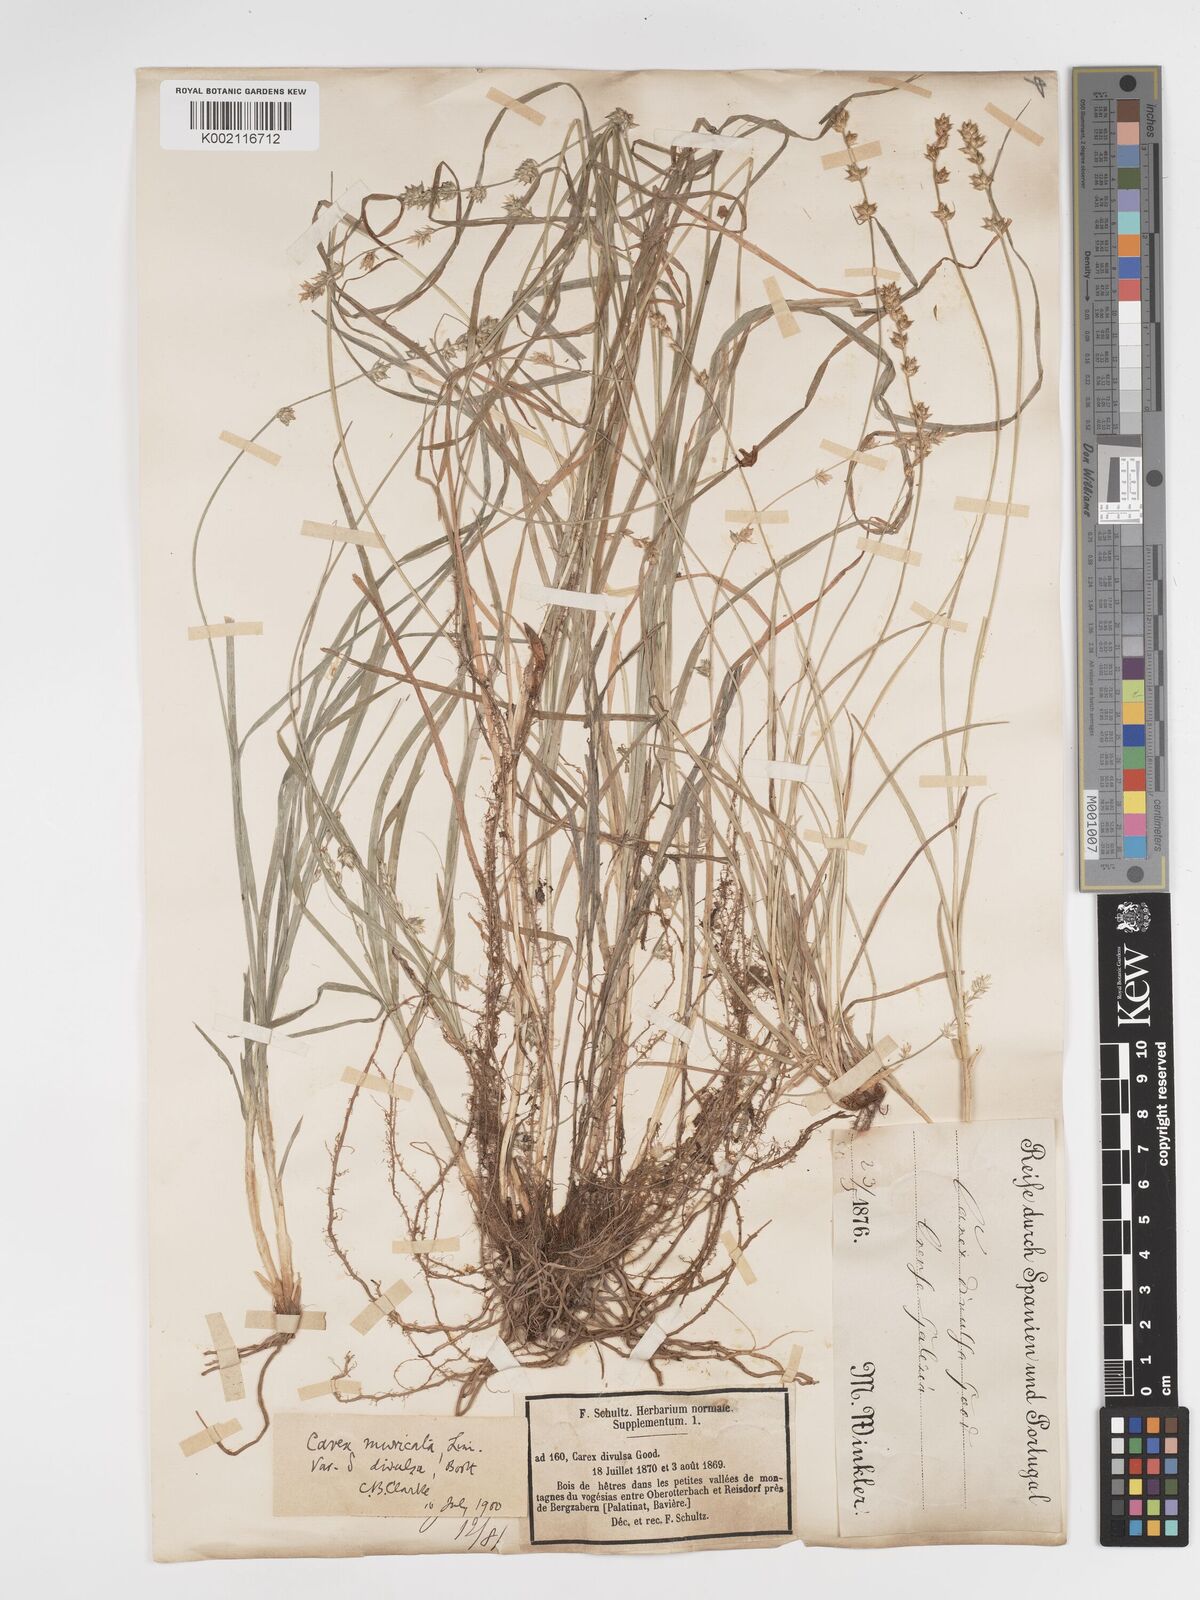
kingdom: Plantae
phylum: Tracheophyta
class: Liliopsida
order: Poales
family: Cyperaceae
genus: Carex
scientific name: Carex divulsa
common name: Grassland sedge
